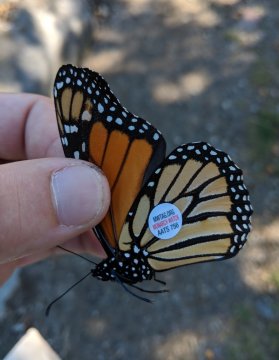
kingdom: Animalia
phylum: Arthropoda
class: Insecta
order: Lepidoptera
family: Nymphalidae
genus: Danaus
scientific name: Danaus plexippus
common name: Monarch
